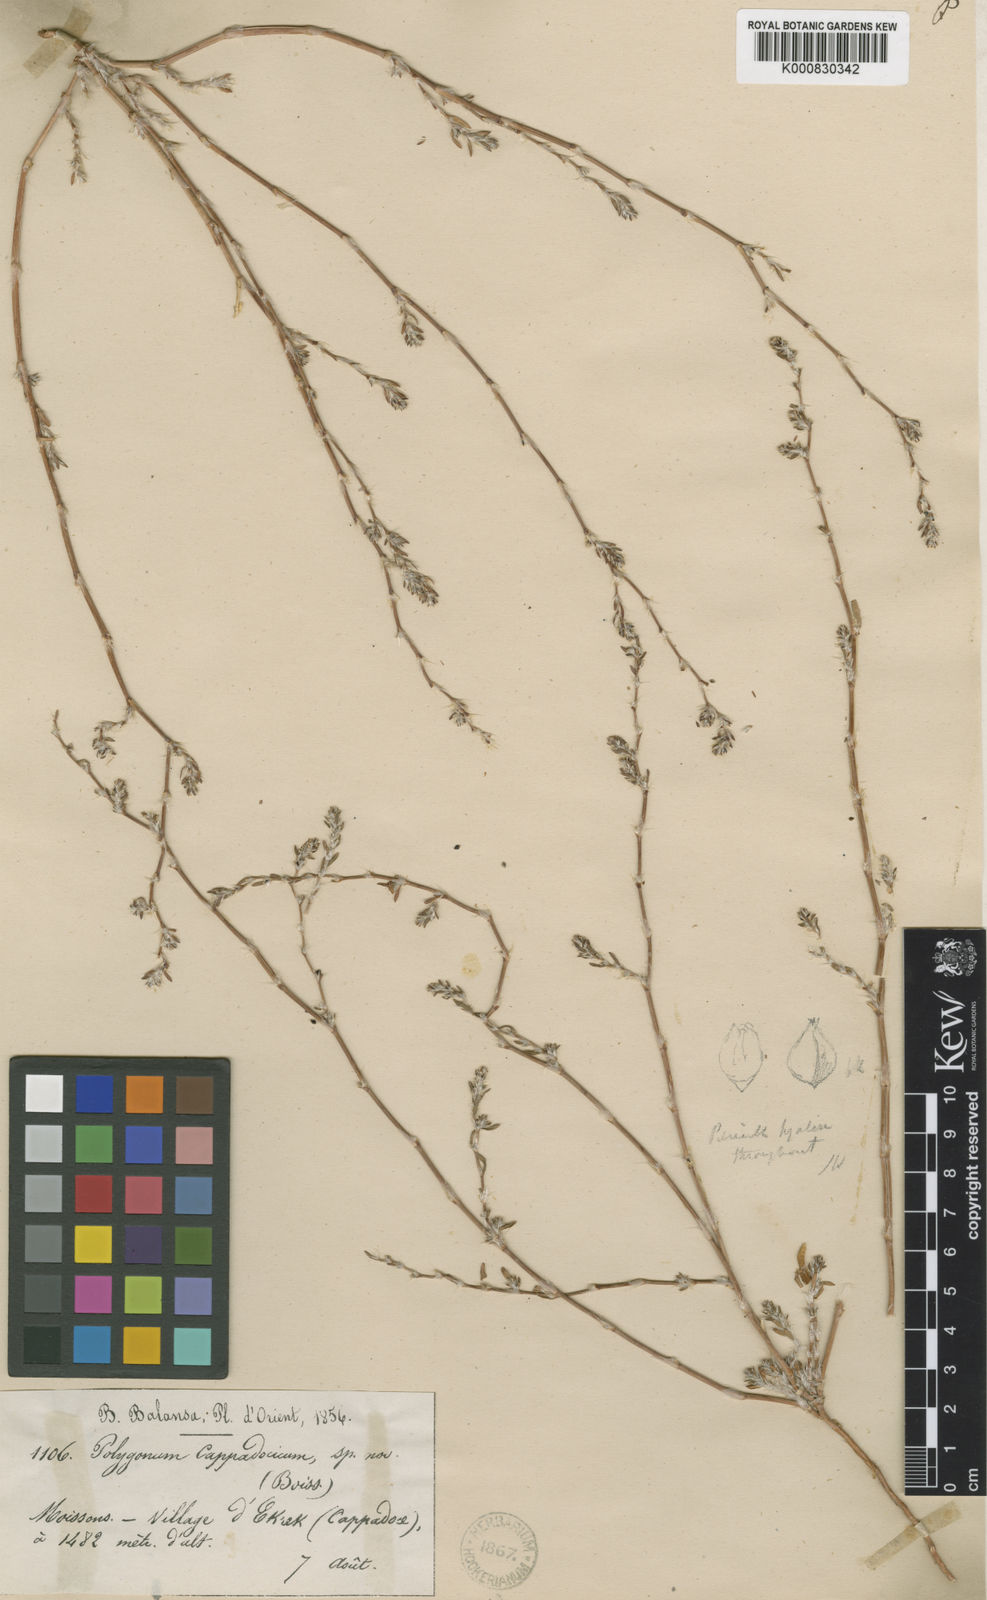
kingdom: Plantae
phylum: Tracheophyta
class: Magnoliopsida
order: Caryophyllales
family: Polygonaceae
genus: Polygonum
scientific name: Polygonum cappadocicum
